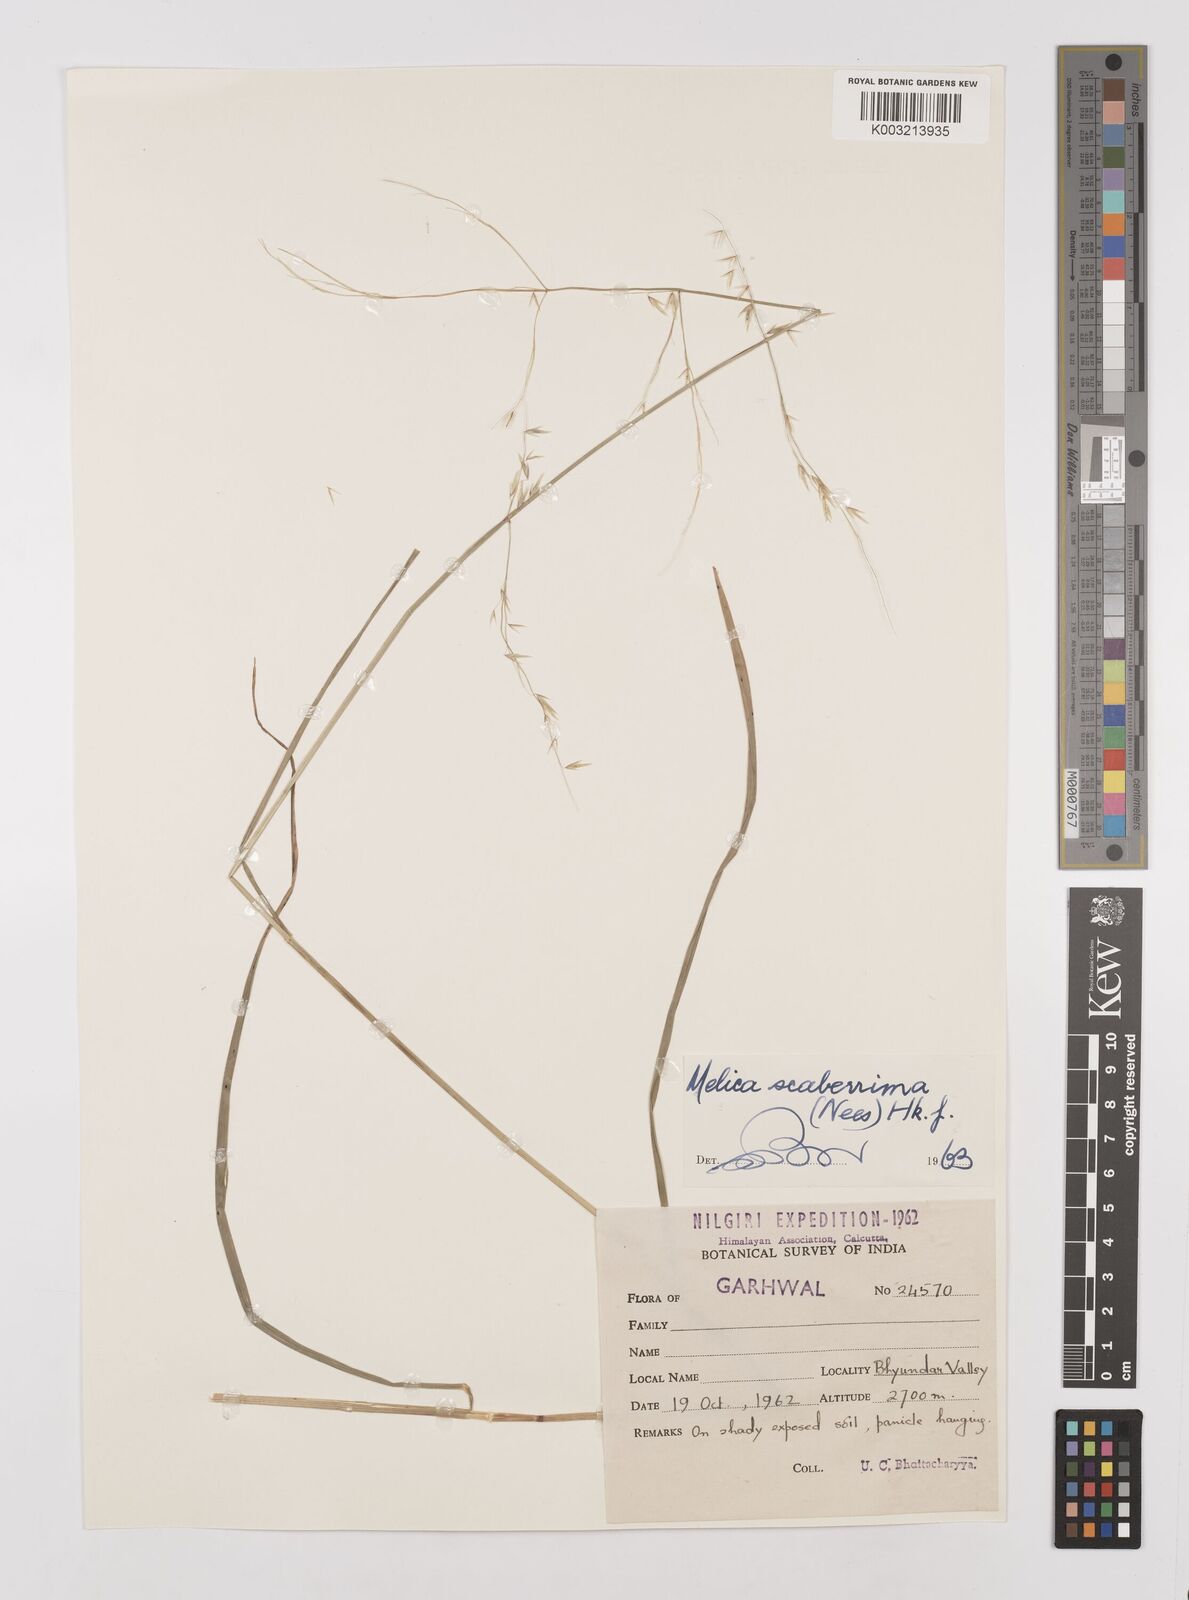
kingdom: Plantae
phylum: Tracheophyta
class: Liliopsida
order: Poales
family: Poaceae
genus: Melica
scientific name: Melica scaberrima
